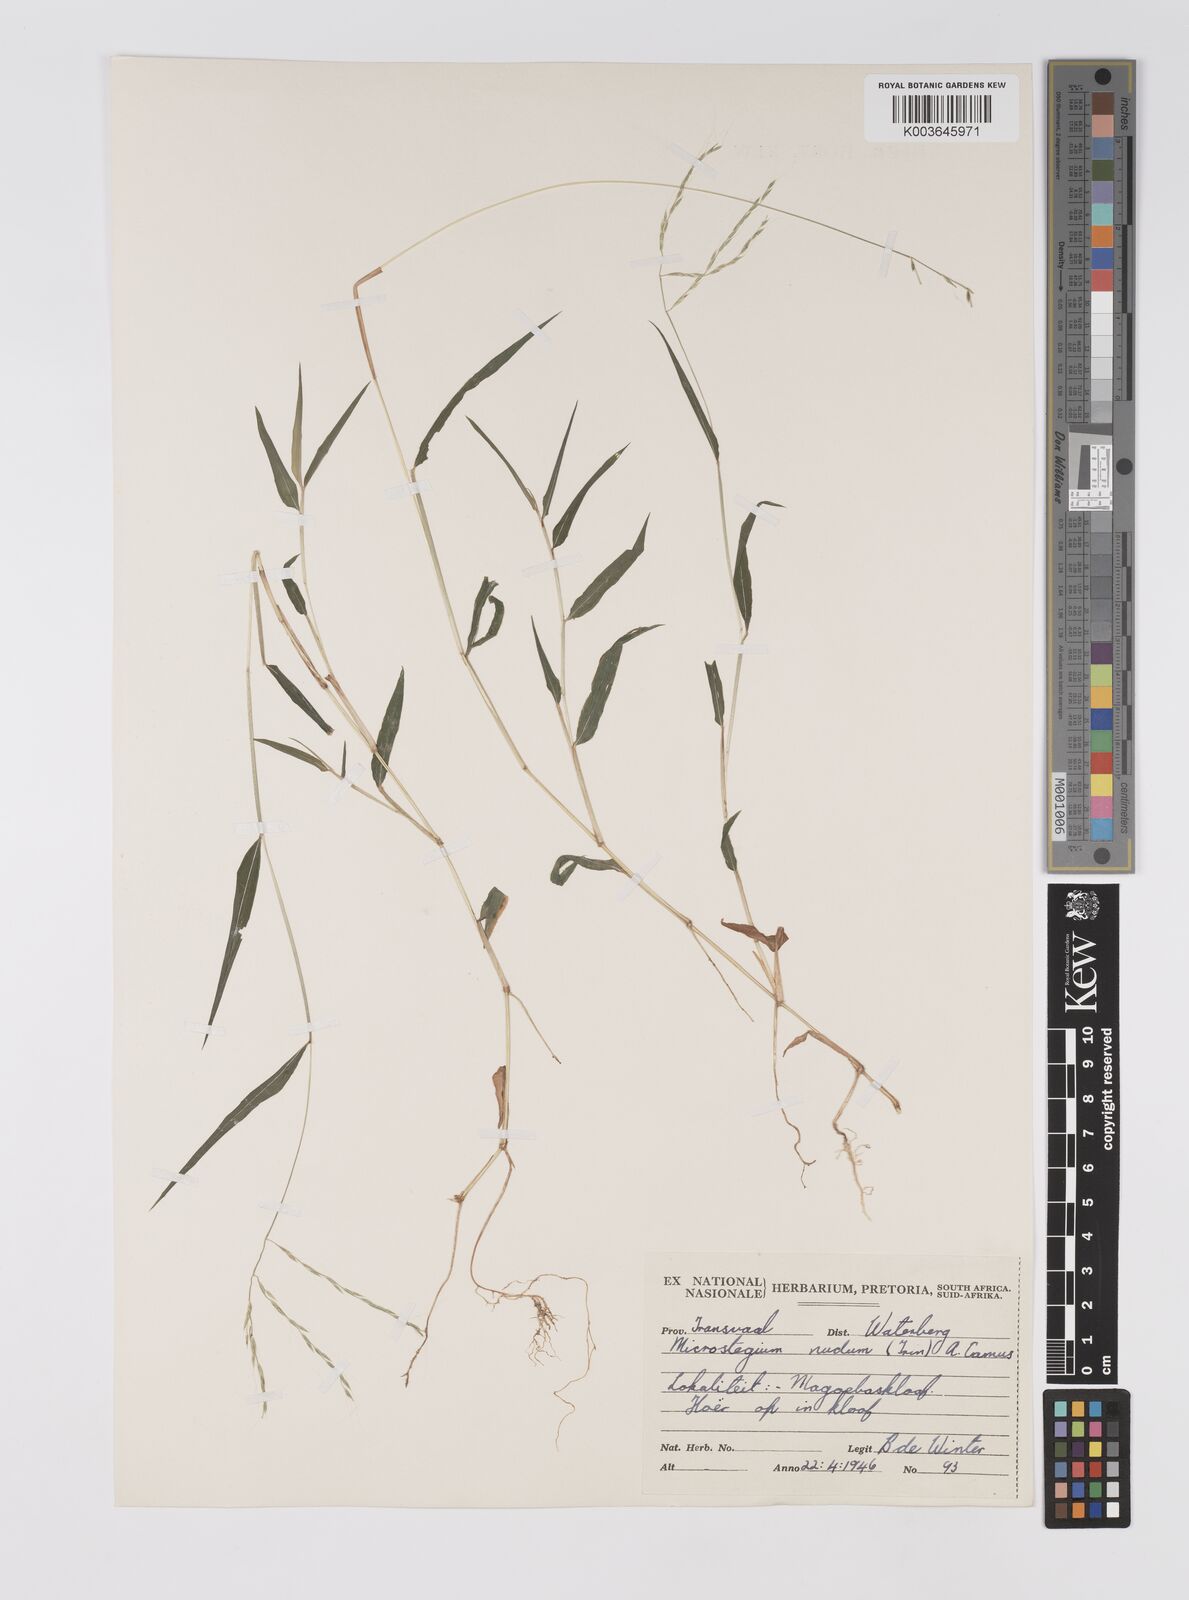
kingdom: Plantae
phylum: Tracheophyta
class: Liliopsida
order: Poales
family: Poaceae
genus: Microstegium
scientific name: Microstegium nudum
